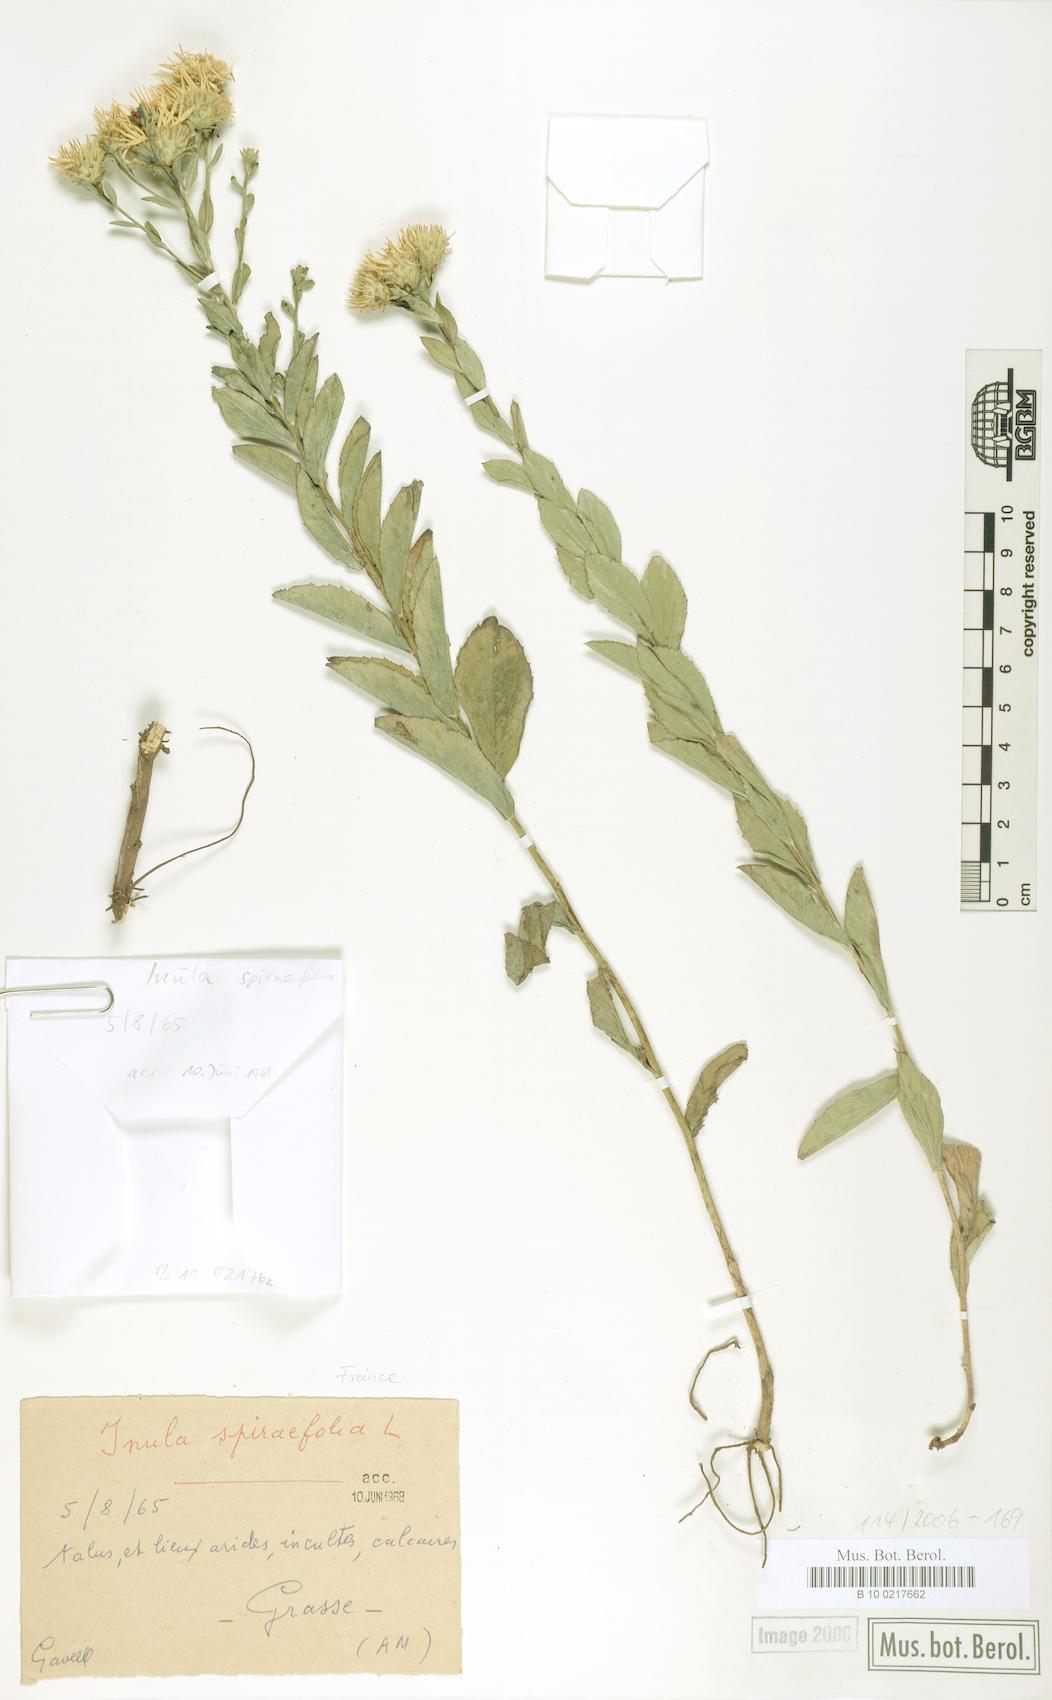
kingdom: Plantae
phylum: Tracheophyta
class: Magnoliopsida
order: Asterales
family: Asteraceae
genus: Pentanema
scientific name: Pentanema spiraeifolium
